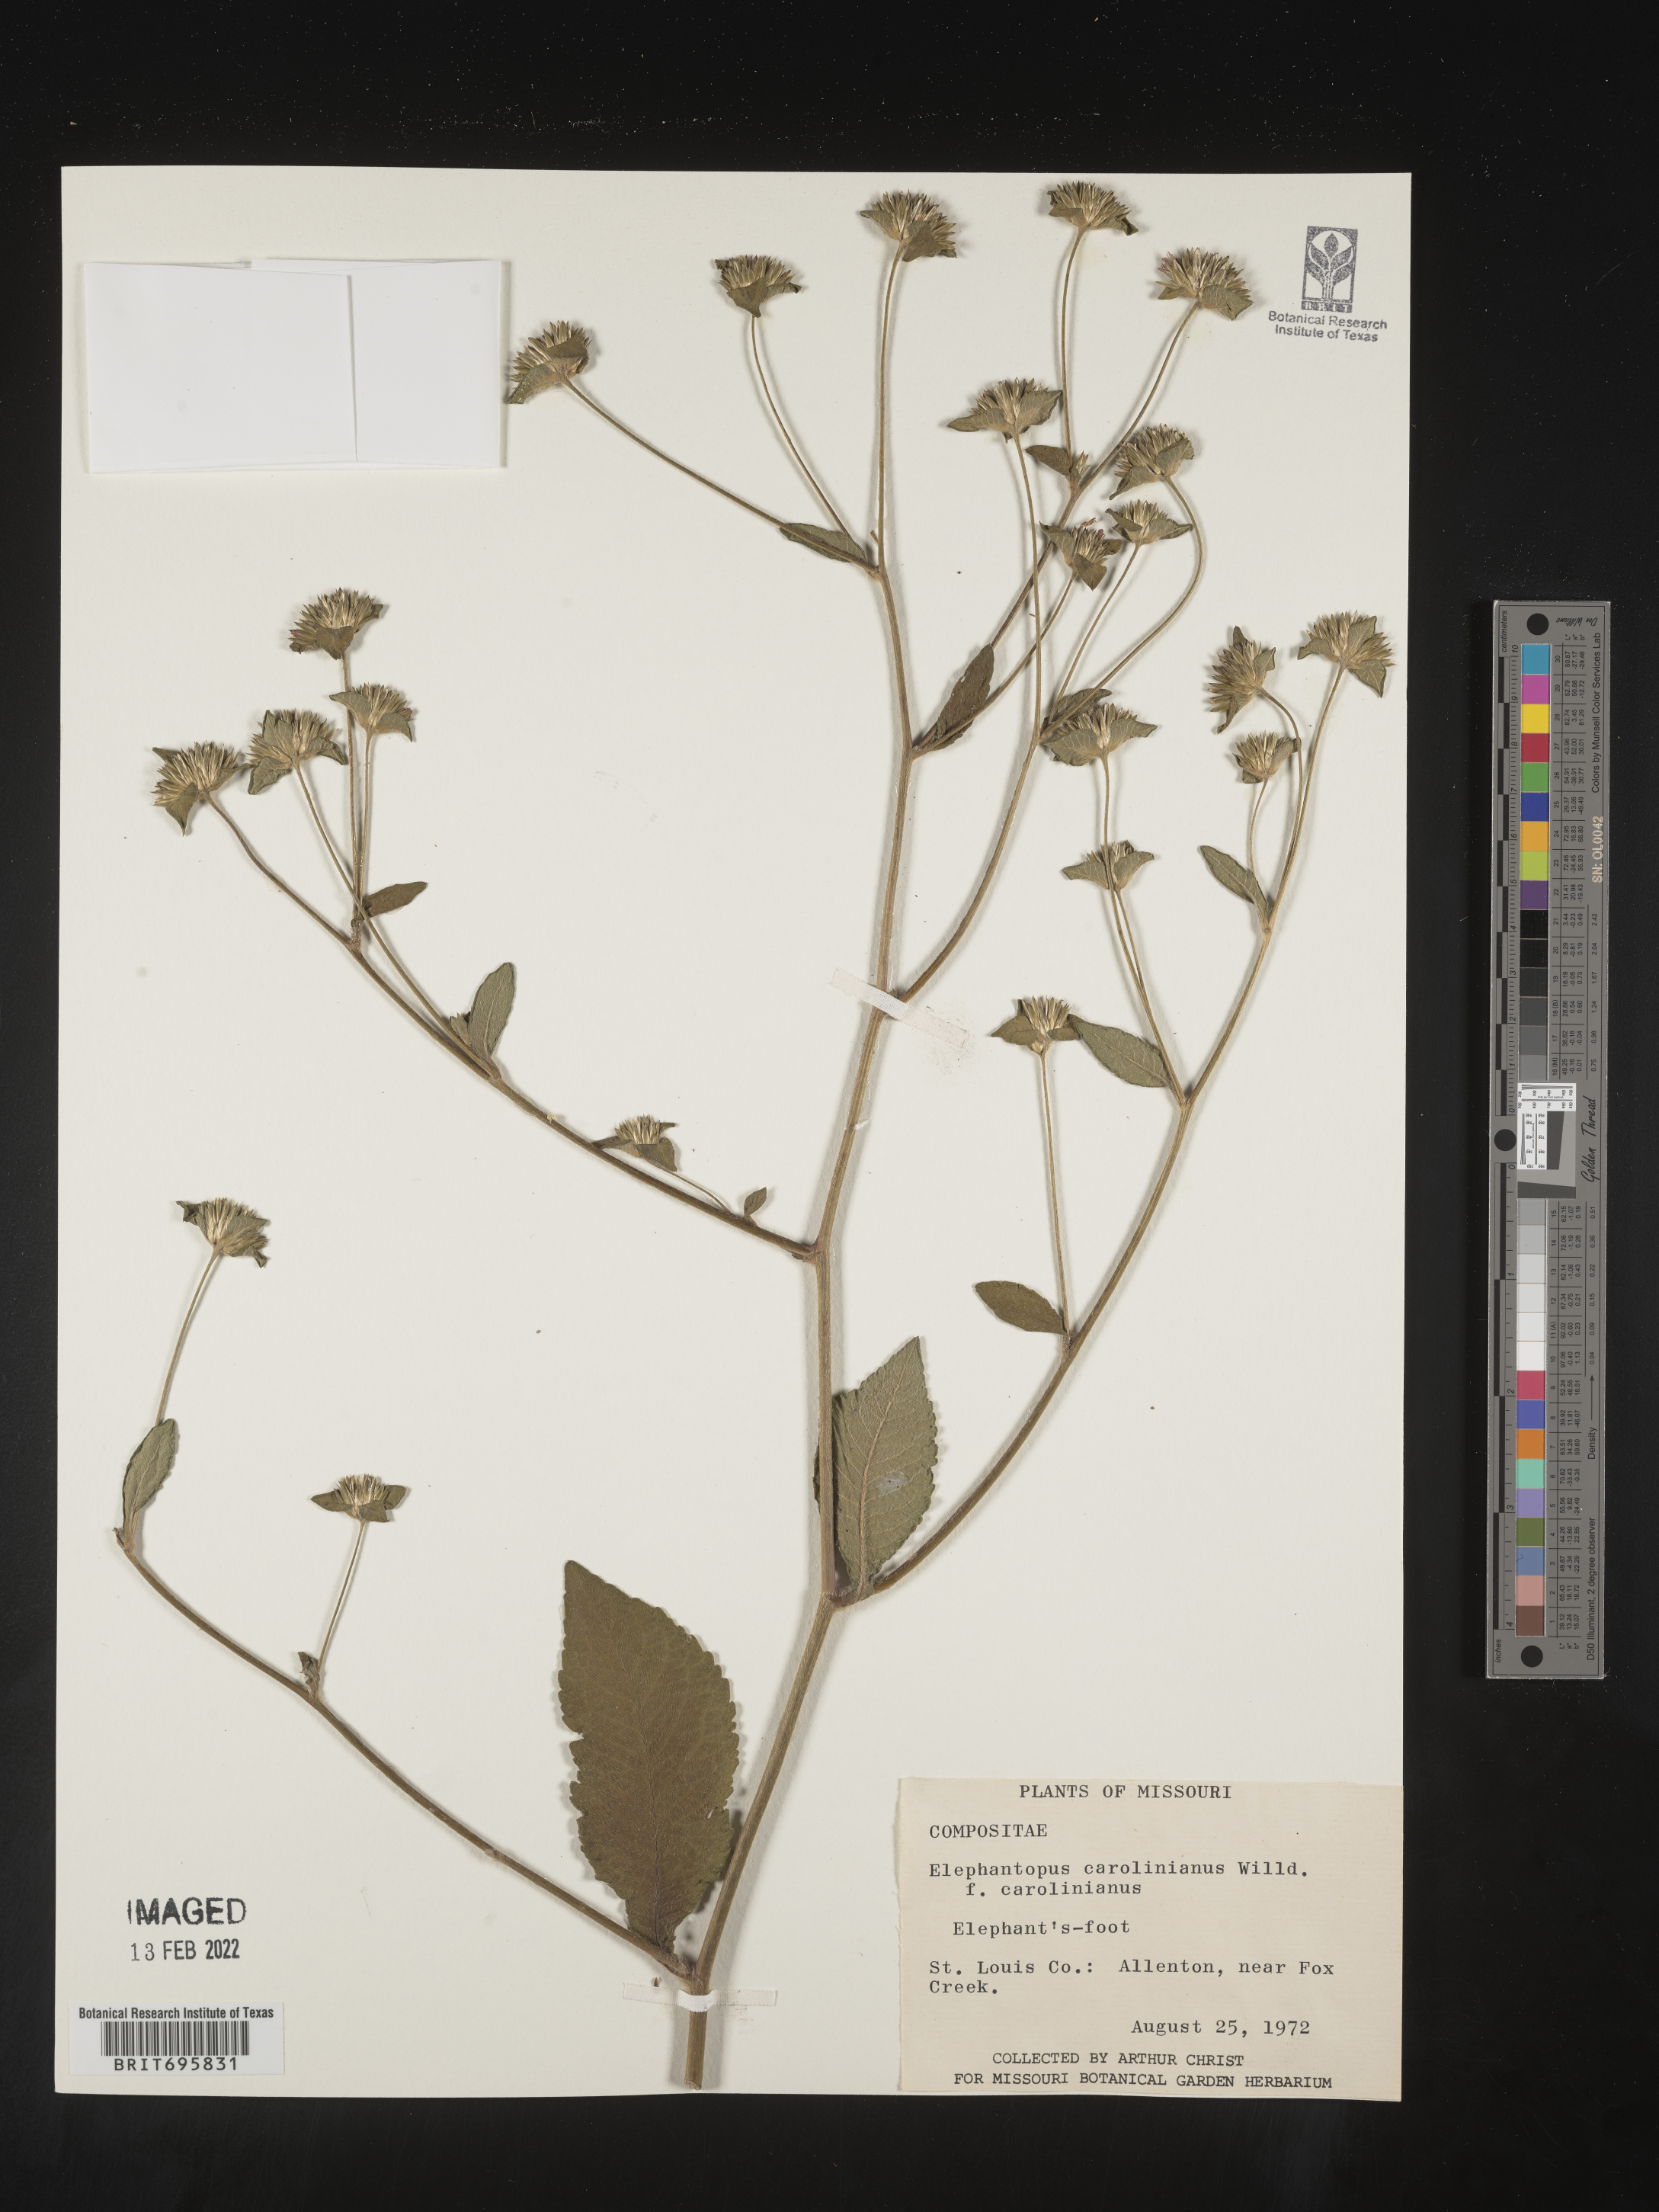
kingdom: Plantae
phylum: Tracheophyta
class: Magnoliopsida
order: Asterales
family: Asteraceae
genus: Elephantopus
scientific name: Elephantopus carolinianus
